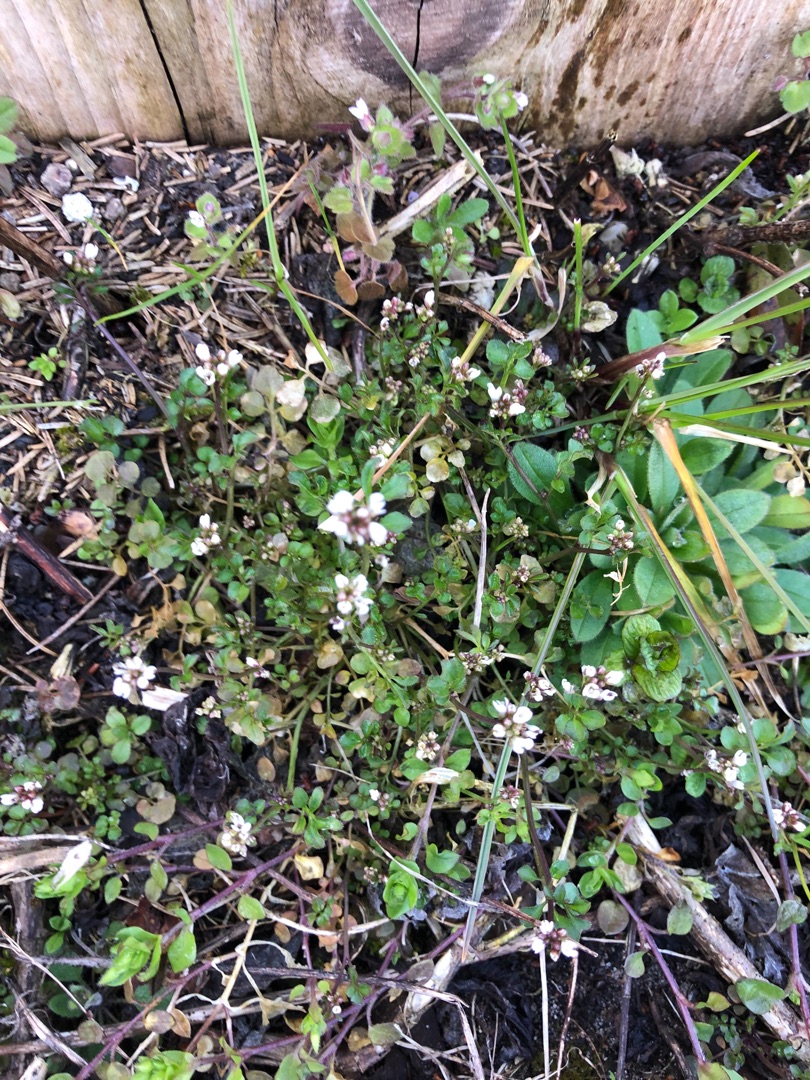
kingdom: Plantae
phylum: Tracheophyta
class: Magnoliopsida
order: Brassicales
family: Brassicaceae
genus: Cardamine
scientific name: Cardamine hirsuta
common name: Roset-springklap
